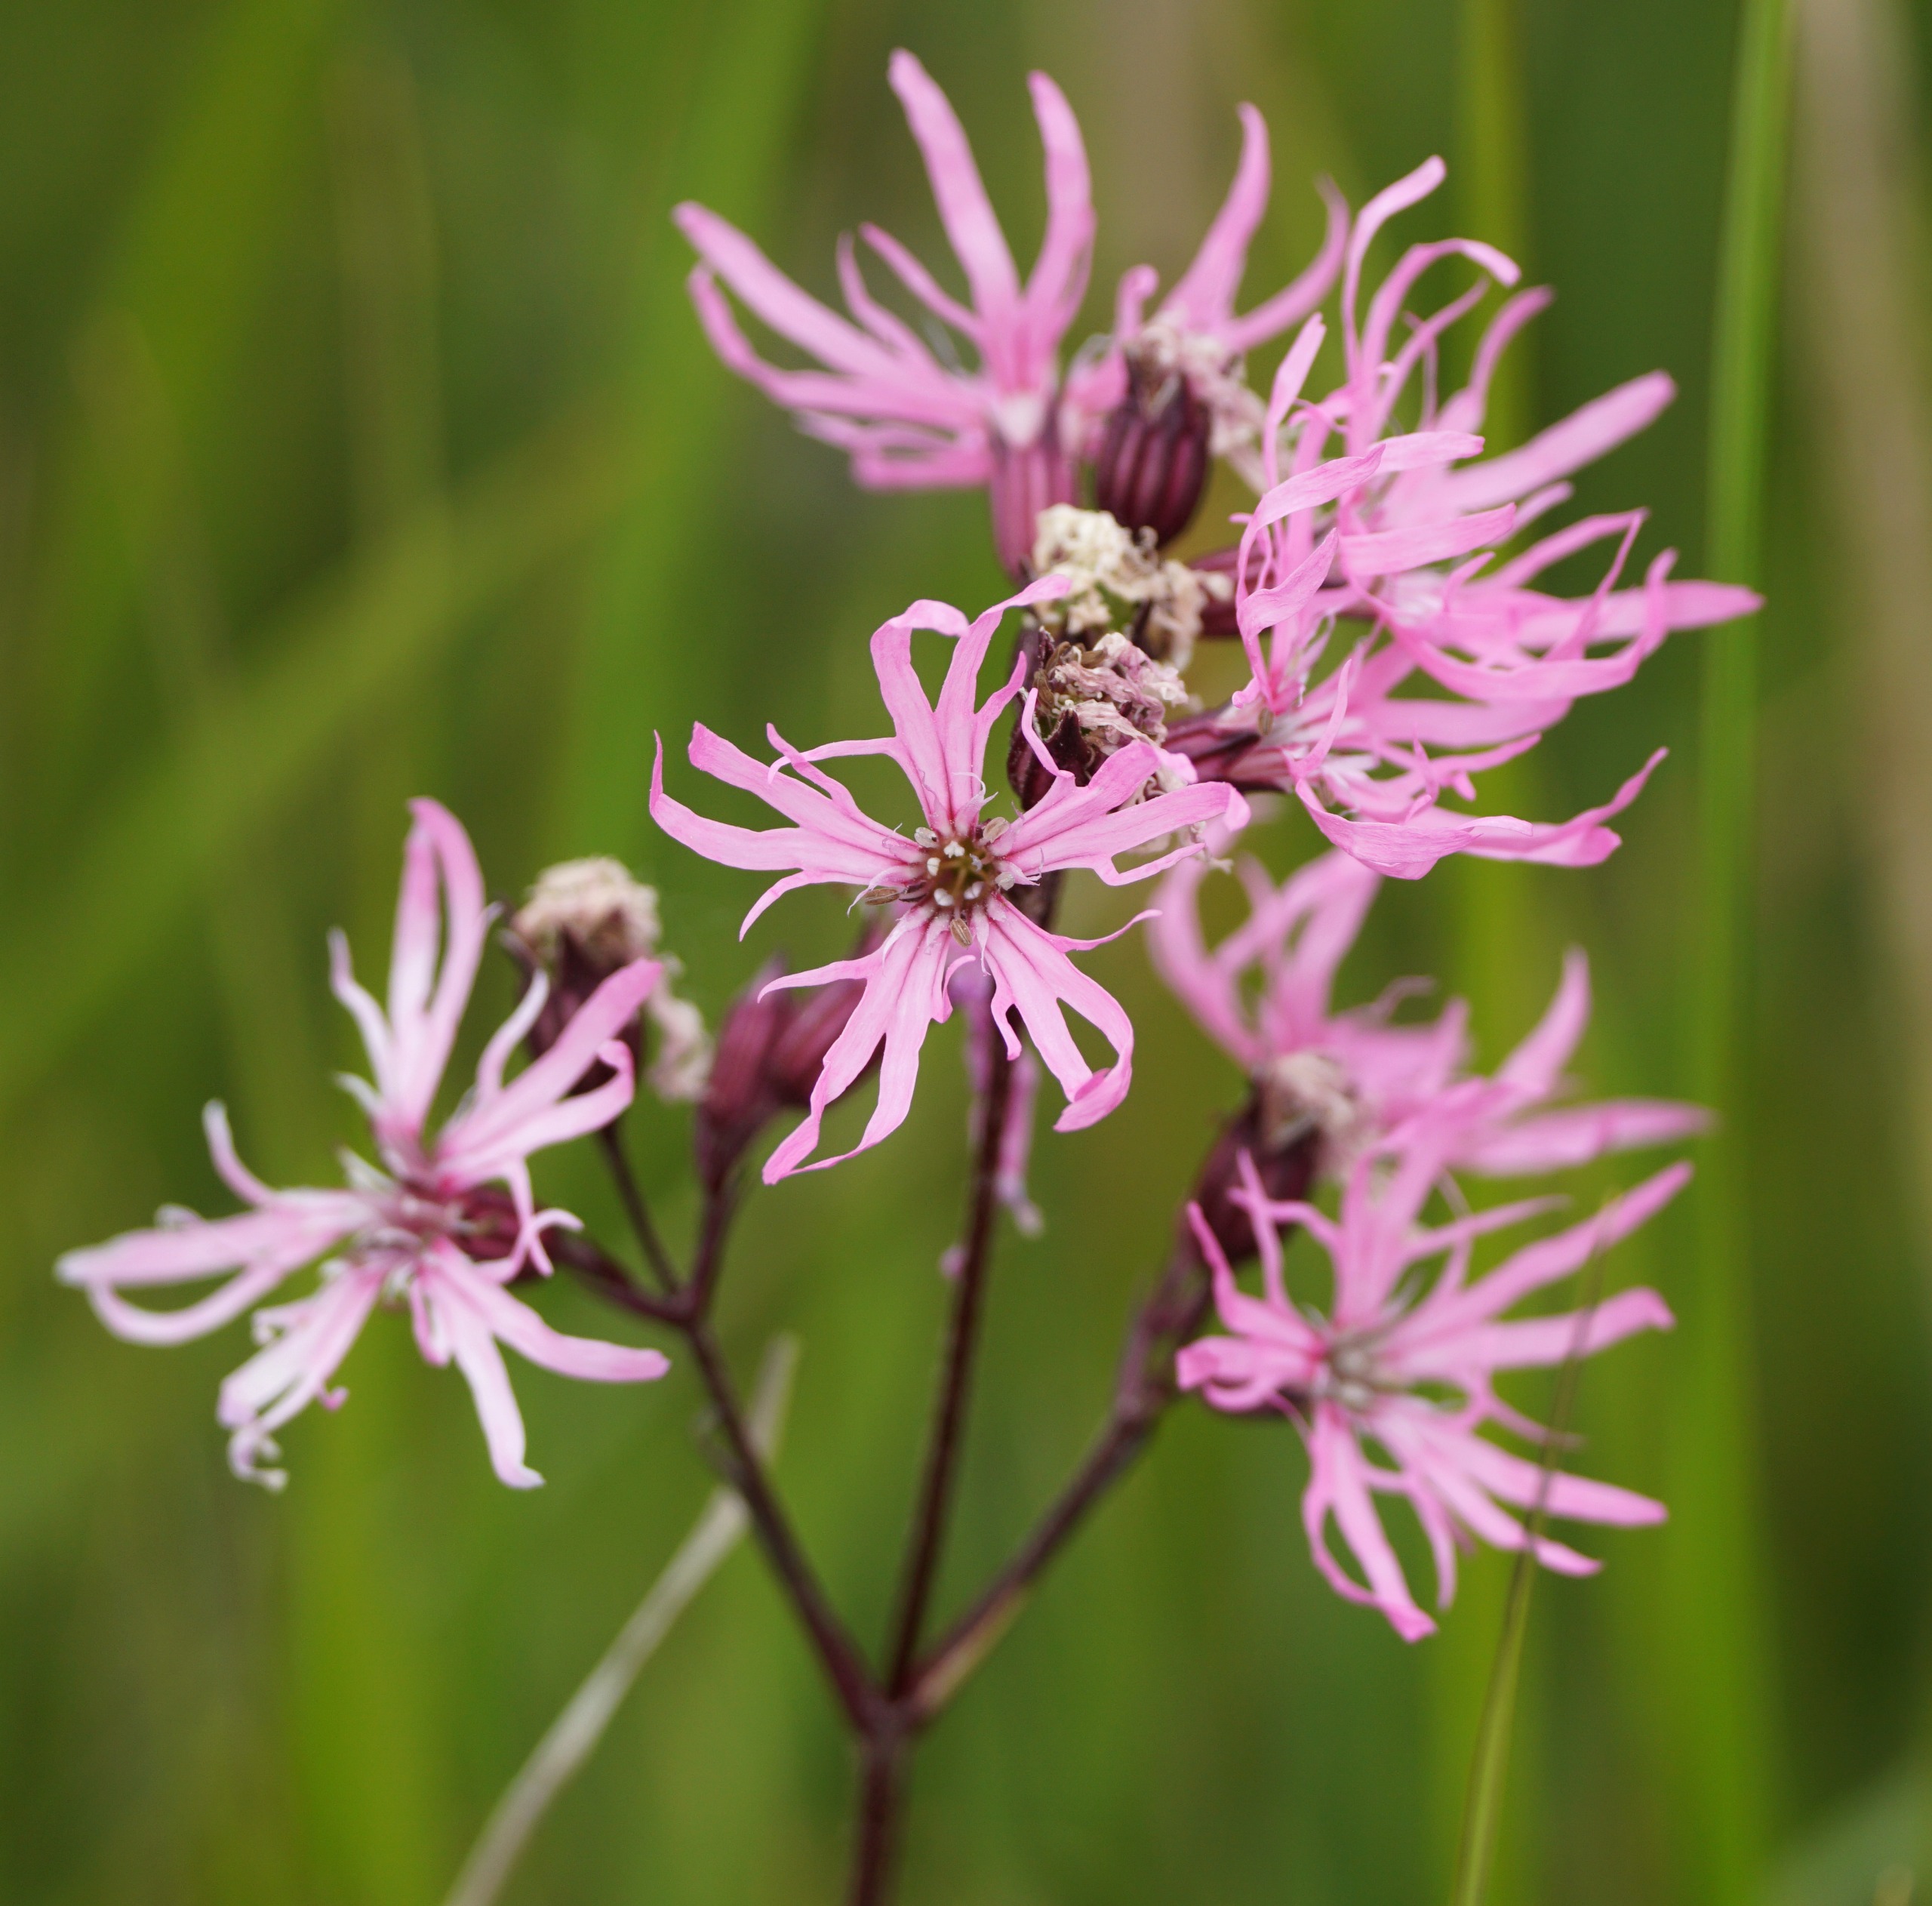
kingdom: Plantae
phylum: Tracheophyta
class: Magnoliopsida
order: Caryophyllales
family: Caryophyllaceae
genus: Silene
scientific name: Silene flos-cuculi
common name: Trævlekrone
